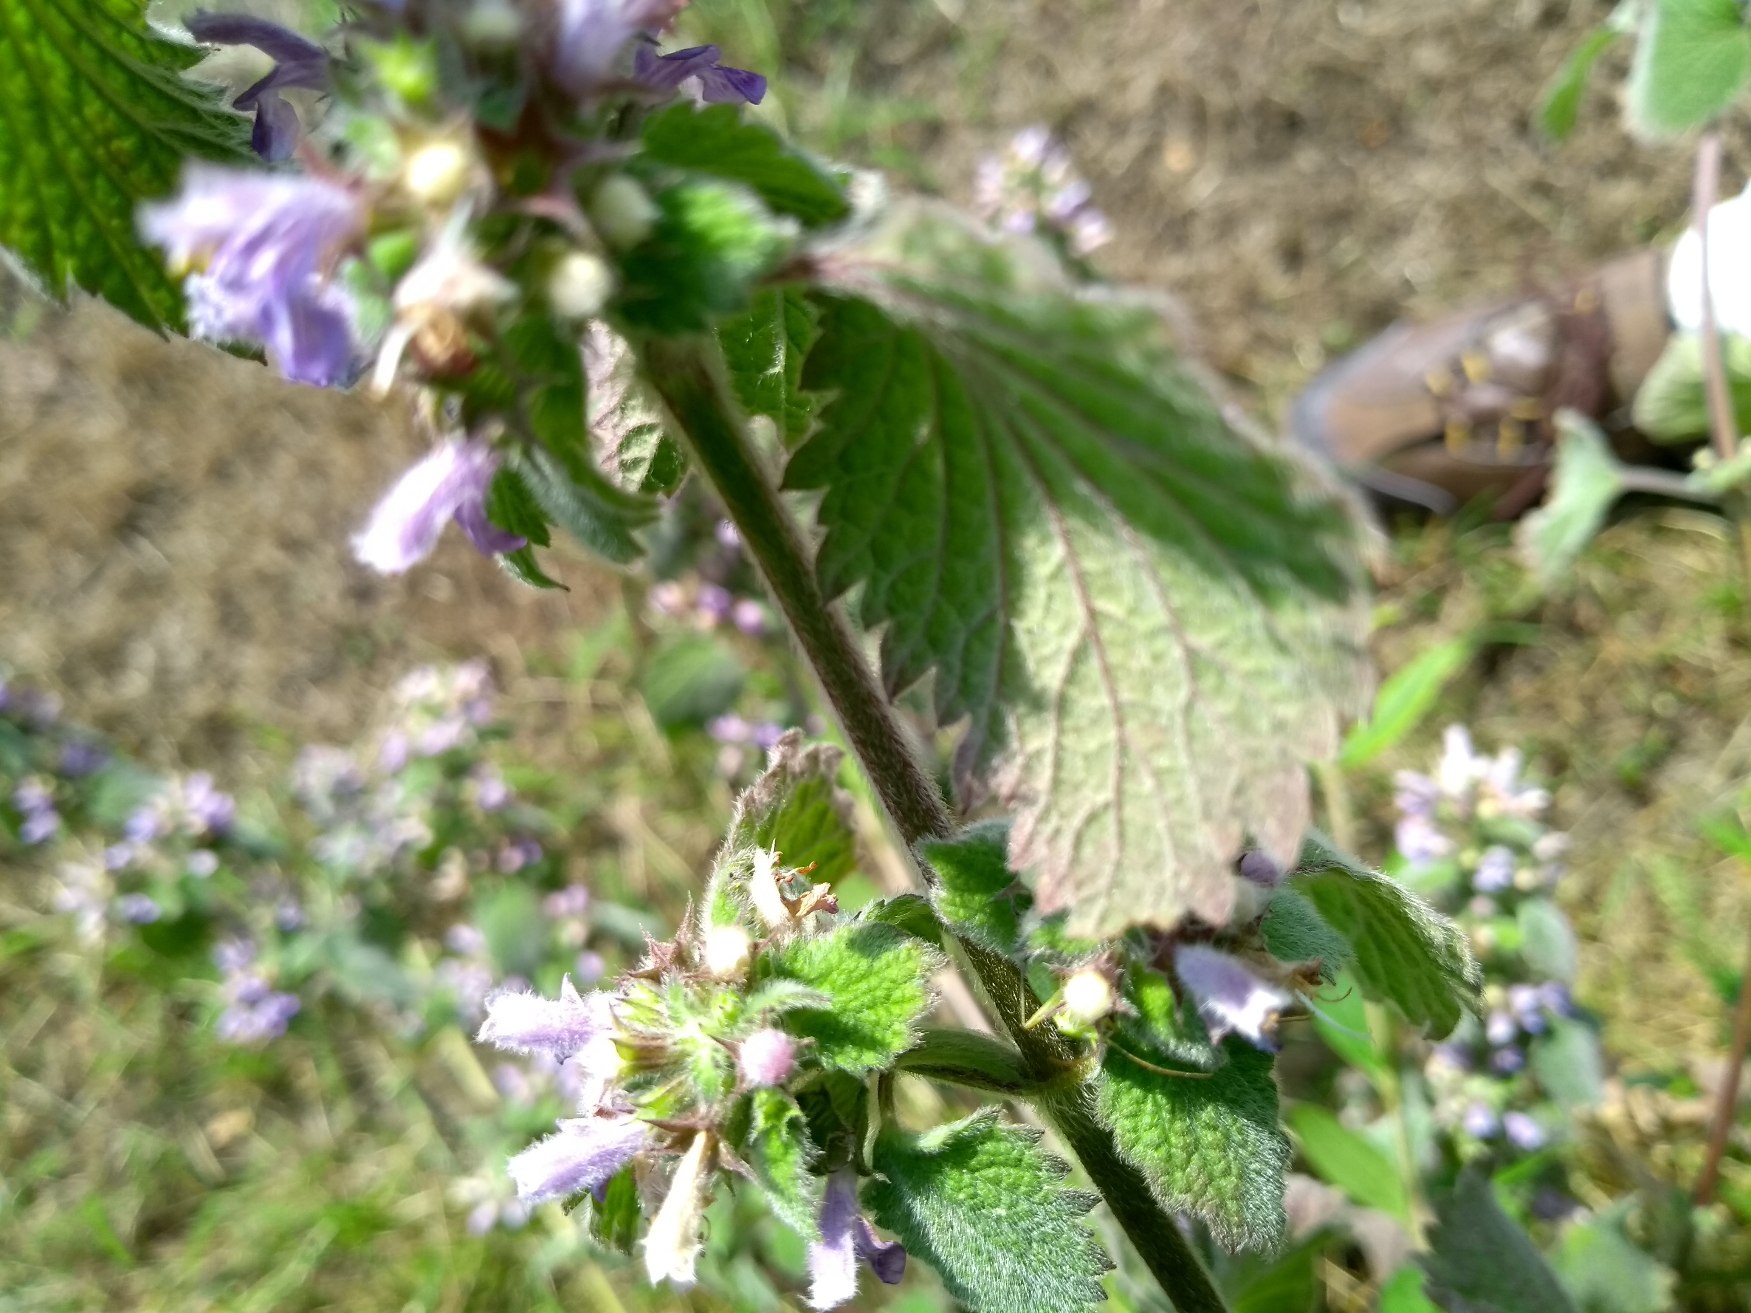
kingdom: Plantae
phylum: Tracheophyta
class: Magnoliopsida
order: Lamiales
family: Lamiaceae
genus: Ballota
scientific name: Ballota nigra
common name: Tandbæger
